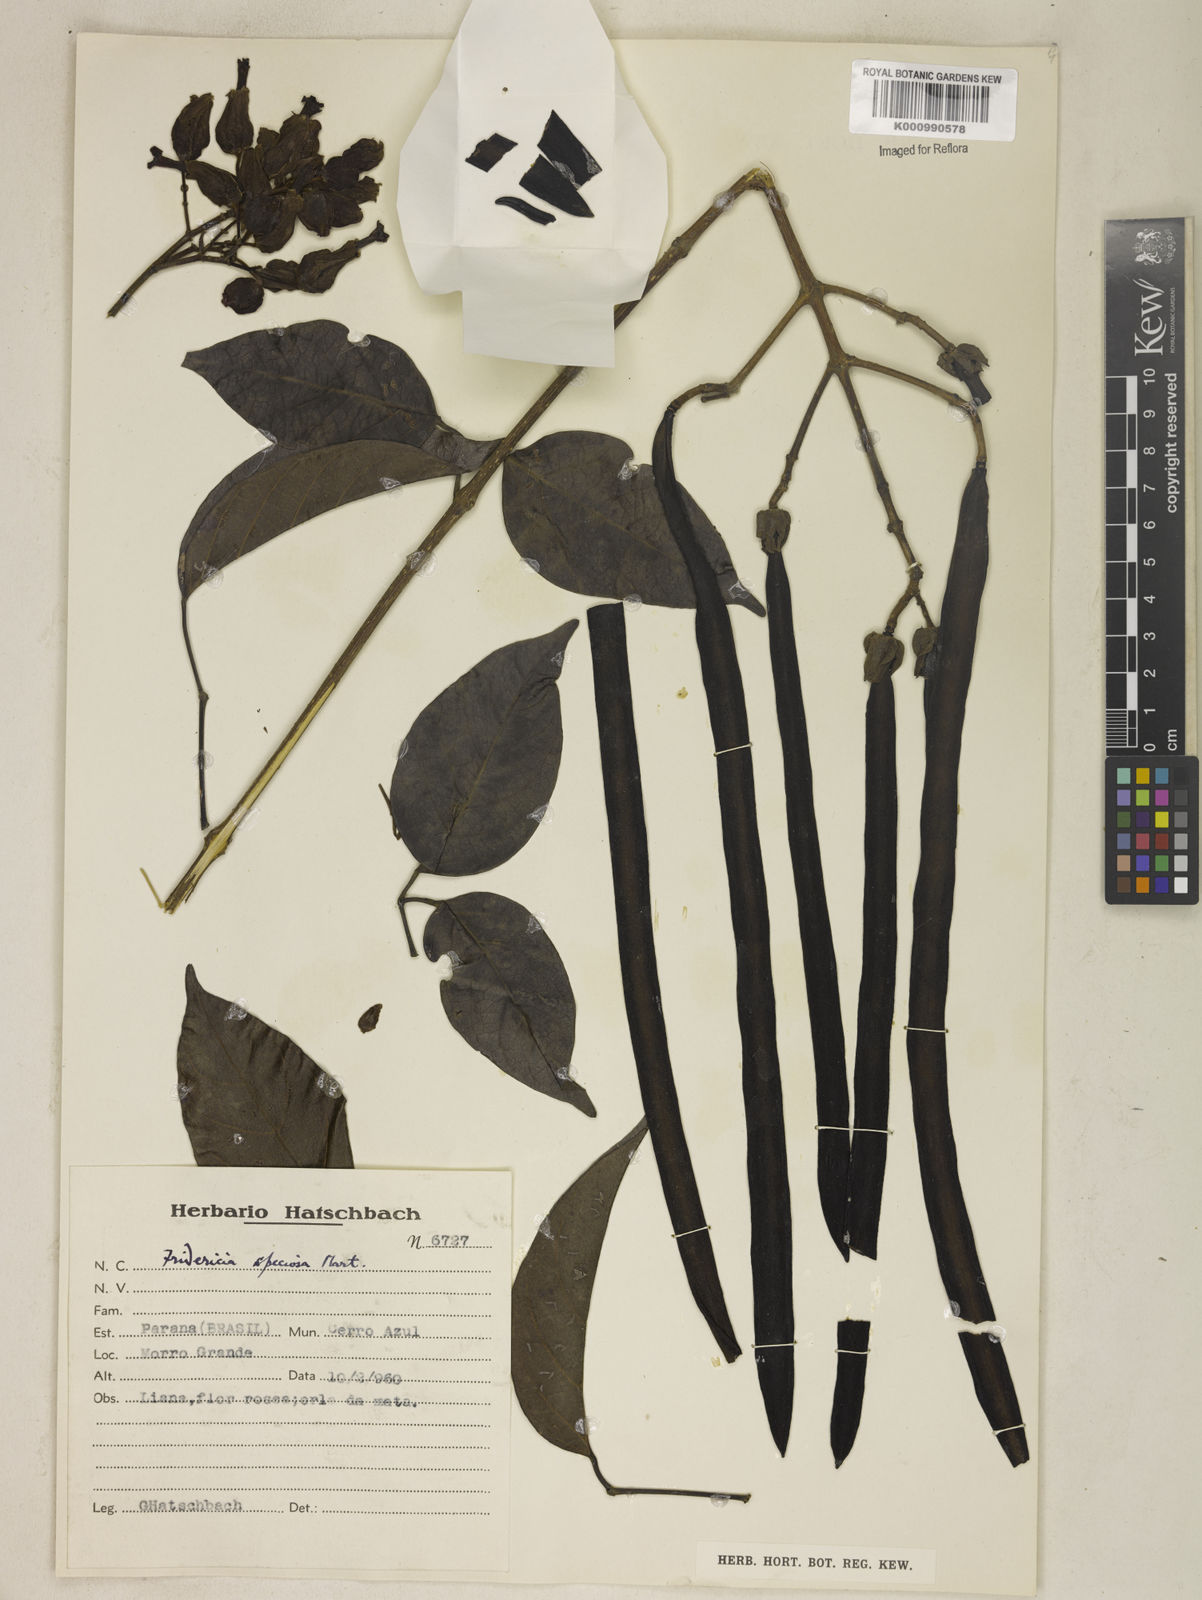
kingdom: Plantae
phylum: Tracheophyta
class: Magnoliopsida
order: Lamiales
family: Bignoniaceae
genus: Fridericia
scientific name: Fridericia speciosa
